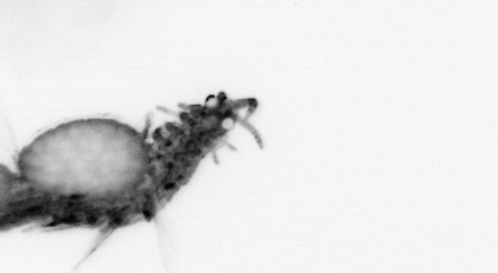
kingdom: Animalia
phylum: Annelida
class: Polychaeta
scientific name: Polychaeta
